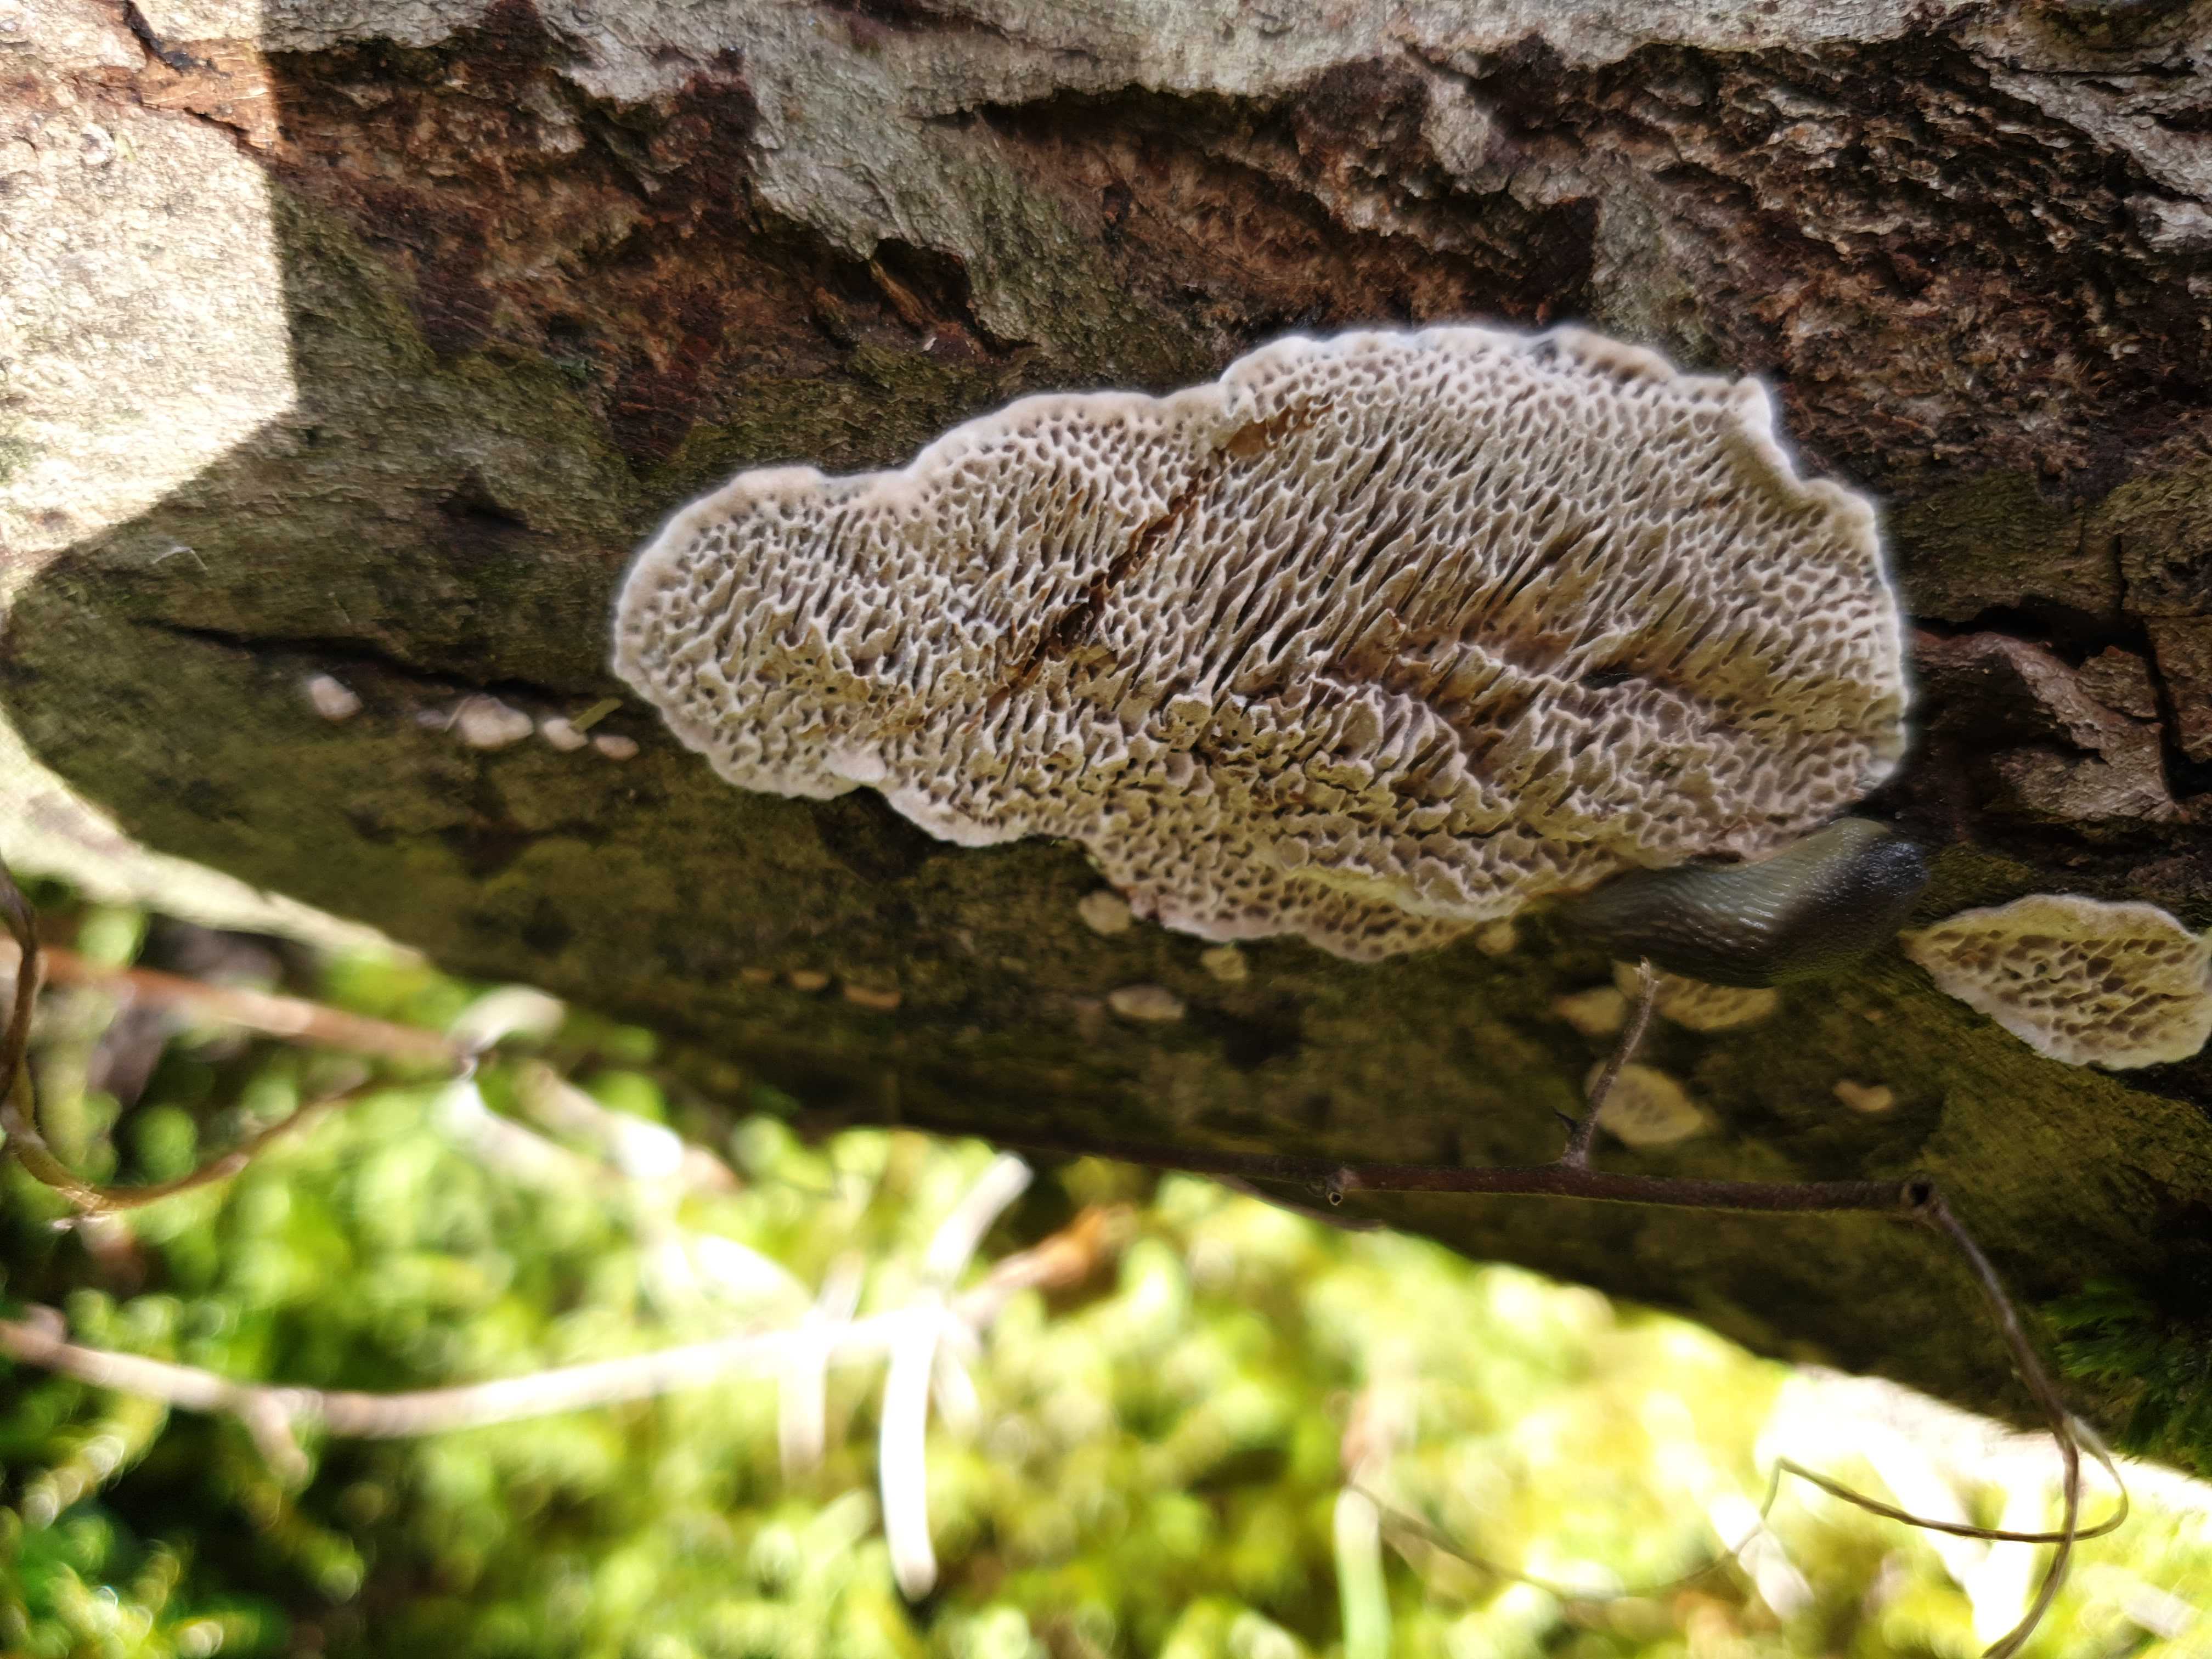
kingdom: Fungi
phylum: Basidiomycota
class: Agaricomycetes
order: Polyporales
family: Polyporaceae
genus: Podofomes
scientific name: Podofomes mollis
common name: blød begporesvamp
